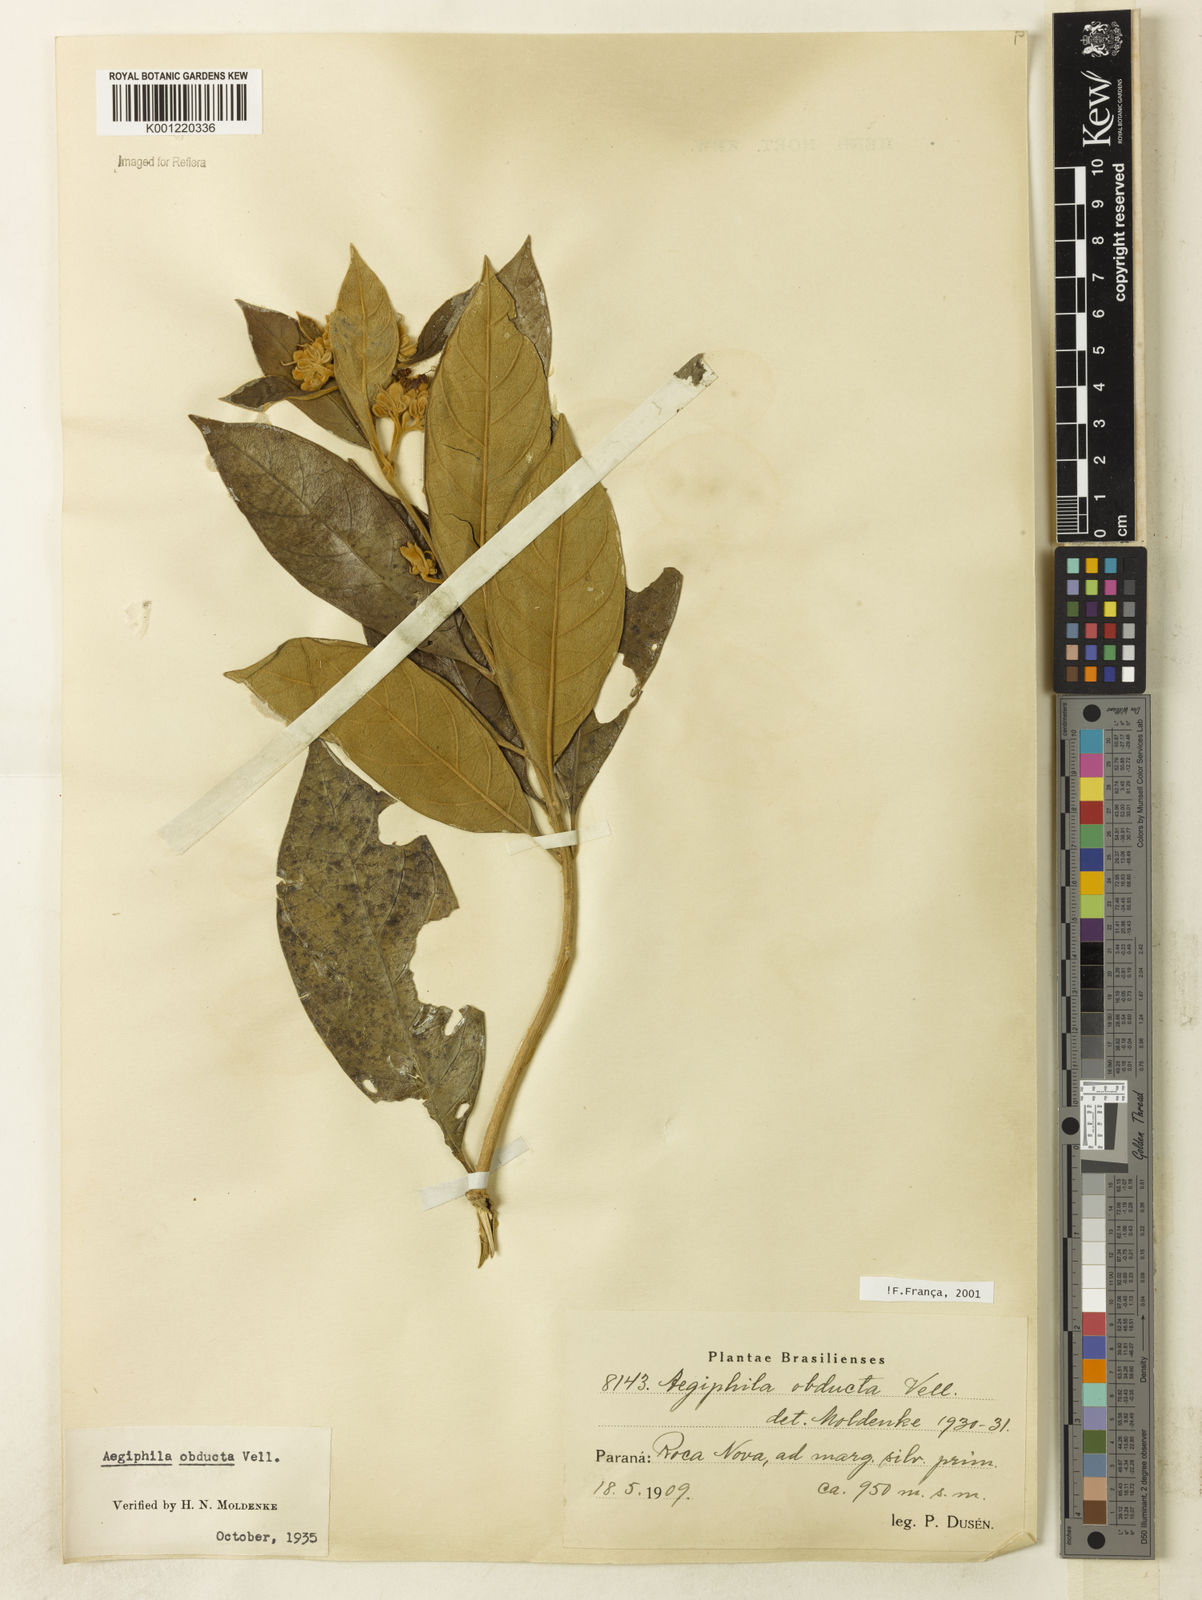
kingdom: Plantae
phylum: Tracheophyta
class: Magnoliopsida
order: Lamiales
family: Lamiaceae
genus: Aegiphila
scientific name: Aegiphila obducta
